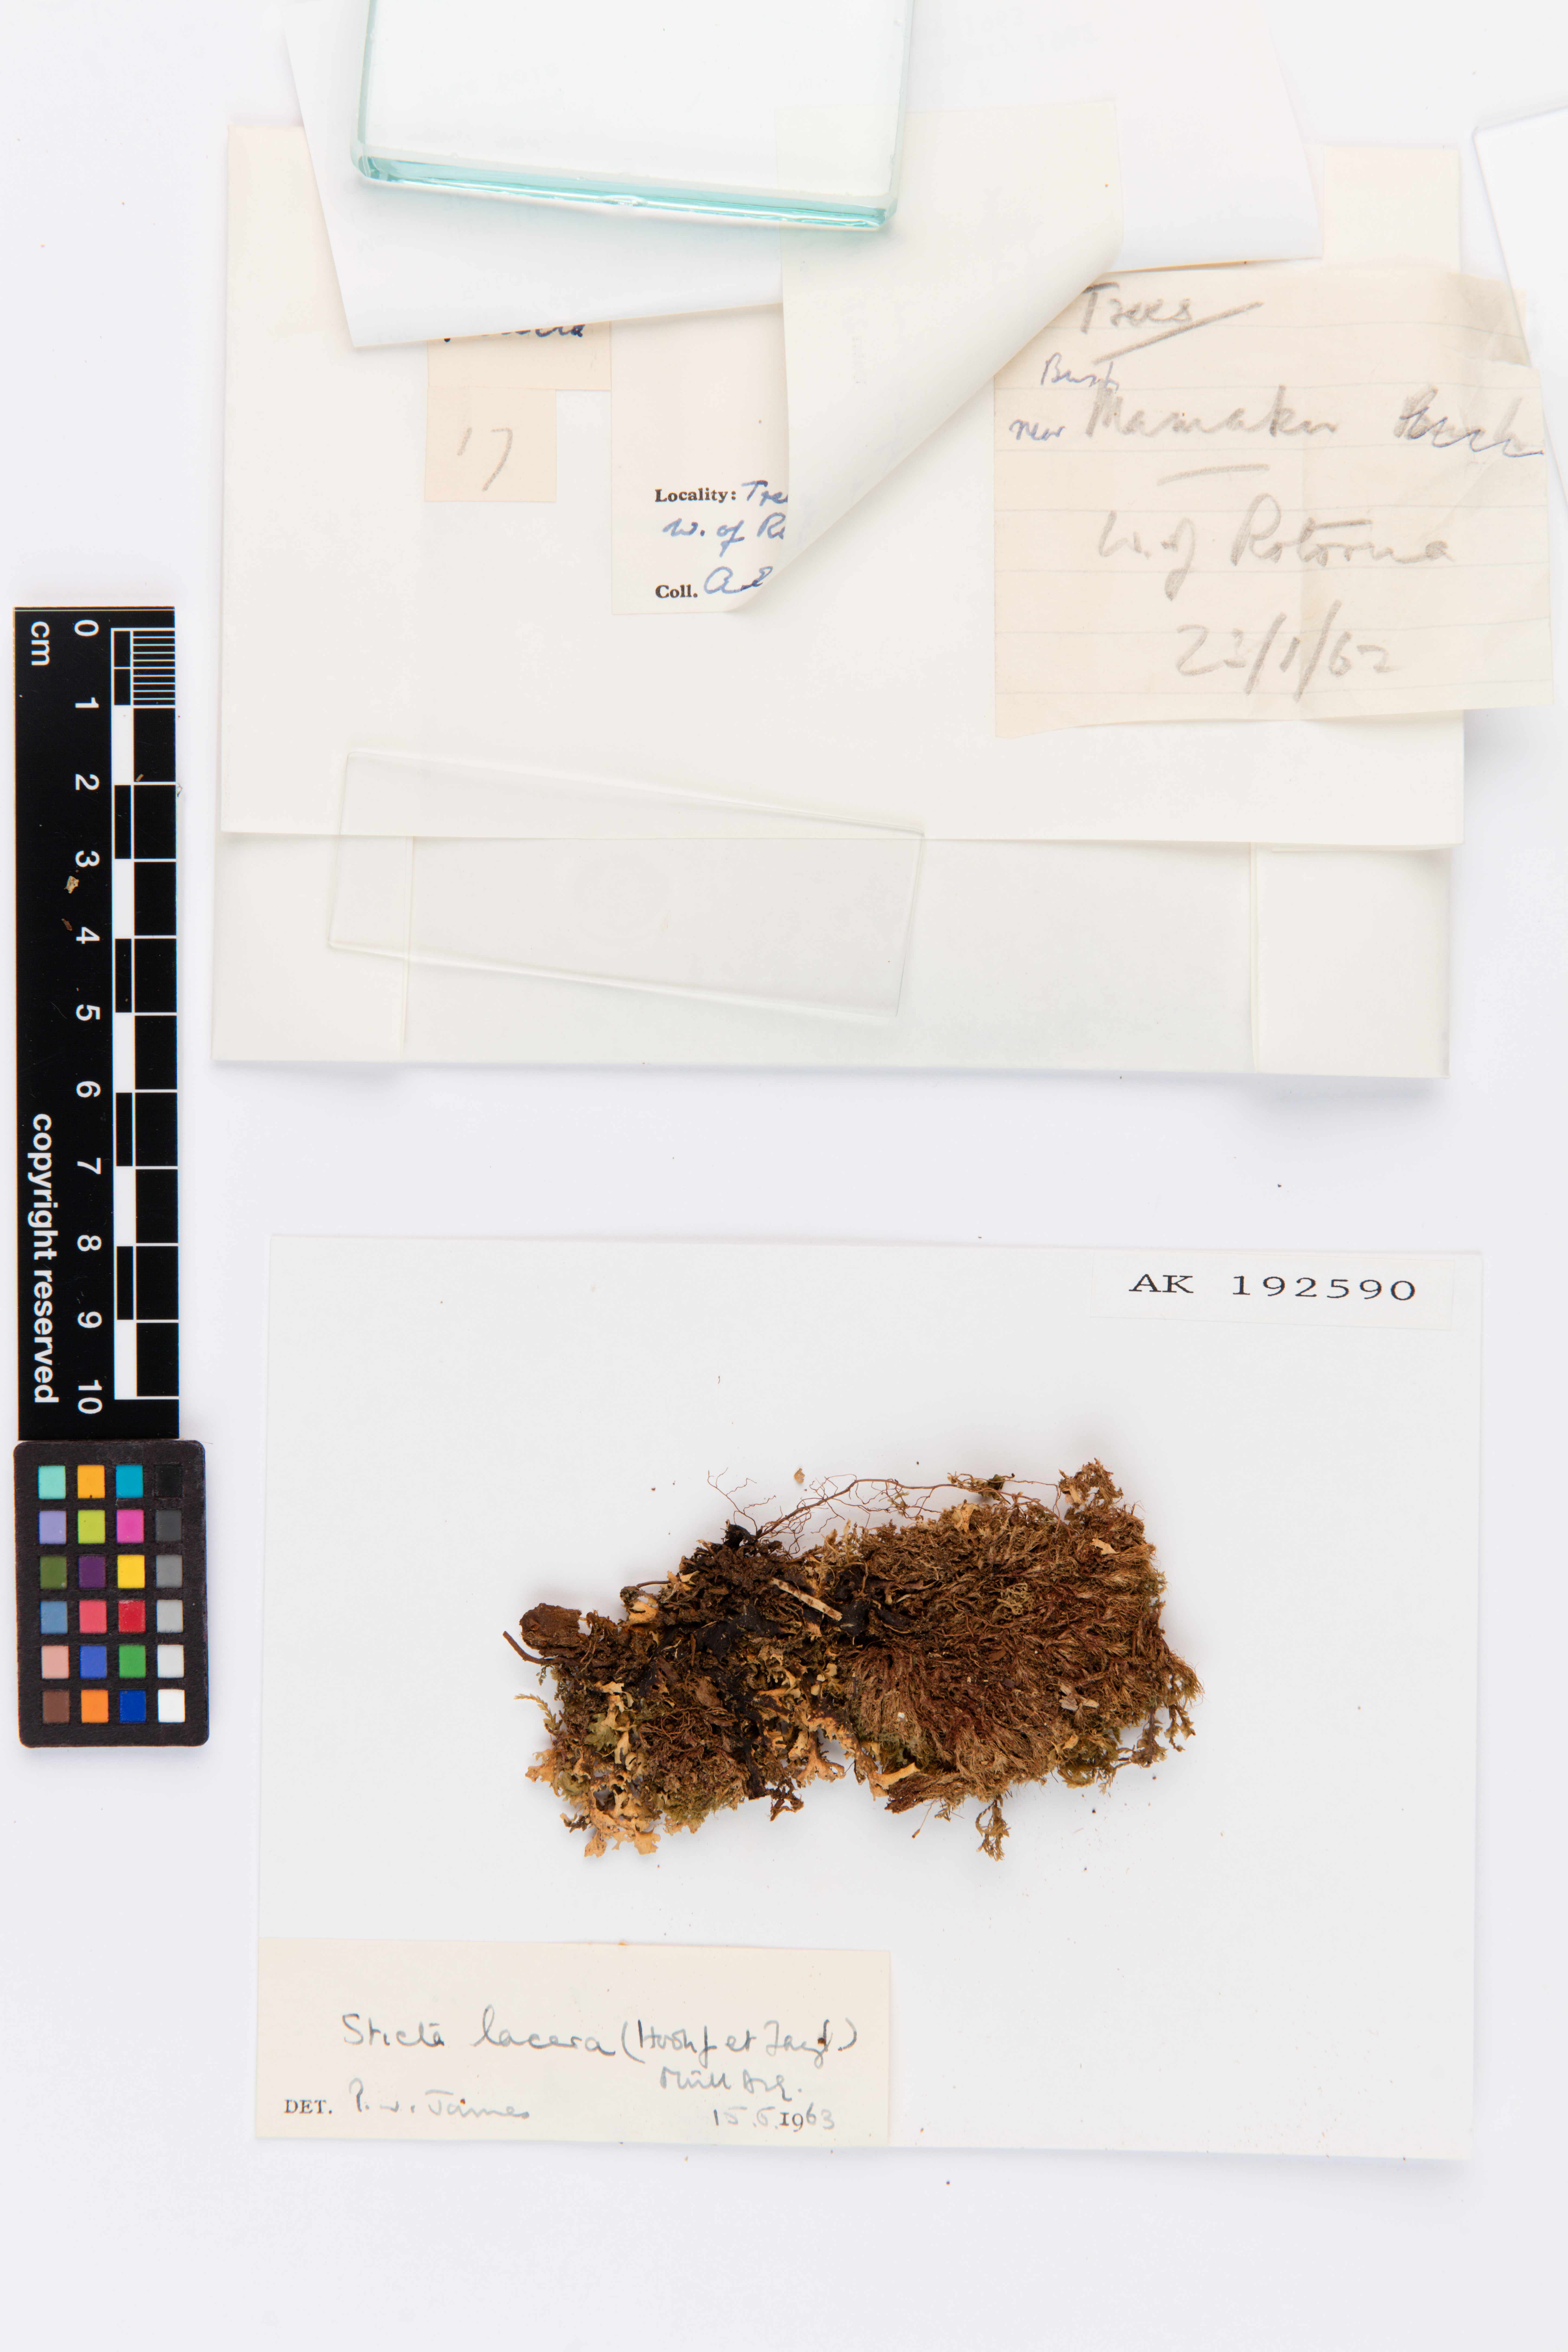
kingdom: Fungi
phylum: Ascomycota
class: Lecanoromycetes
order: Peltigerales
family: Lobariaceae
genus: Sticta
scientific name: Sticta
